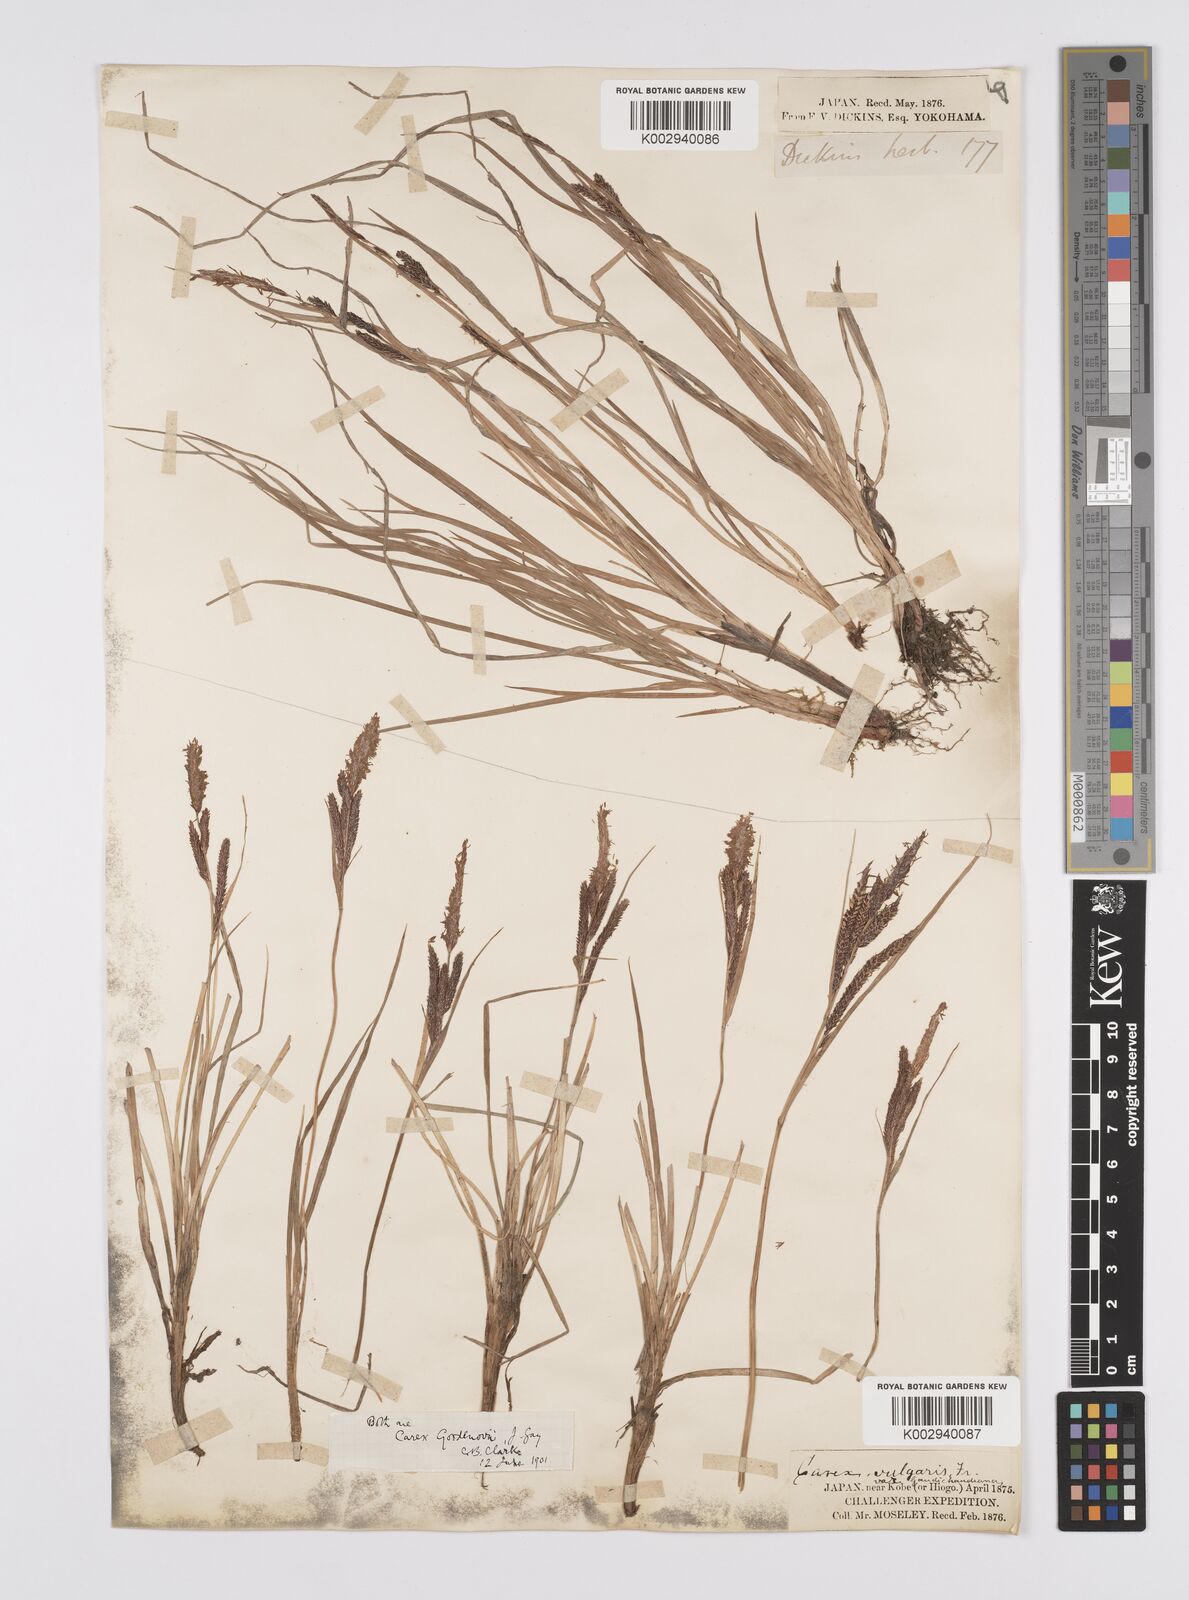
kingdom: Plantae
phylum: Tracheophyta
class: Liliopsida
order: Poales
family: Cyperaceae
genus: Carex
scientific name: Carex thunbergii
